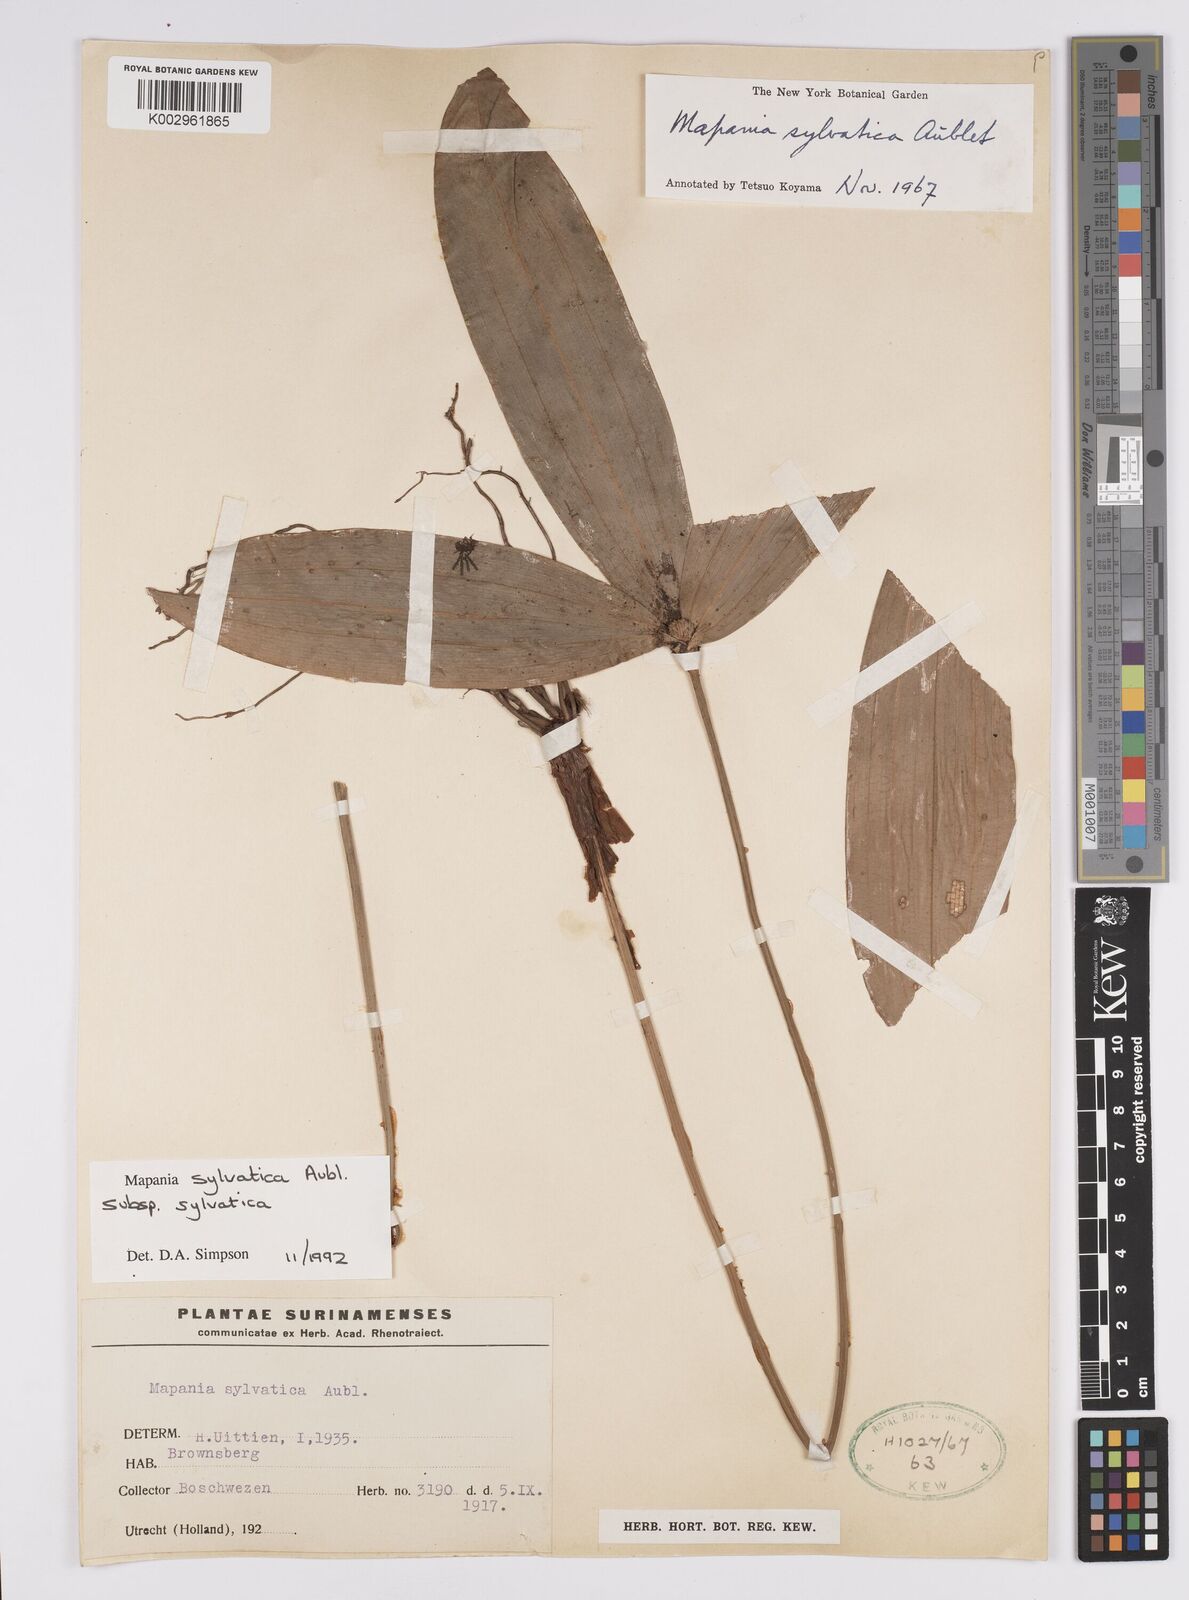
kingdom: Plantae
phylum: Tracheophyta
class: Liliopsida
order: Poales
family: Cyperaceae
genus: Mapania
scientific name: Mapania sylvatica
